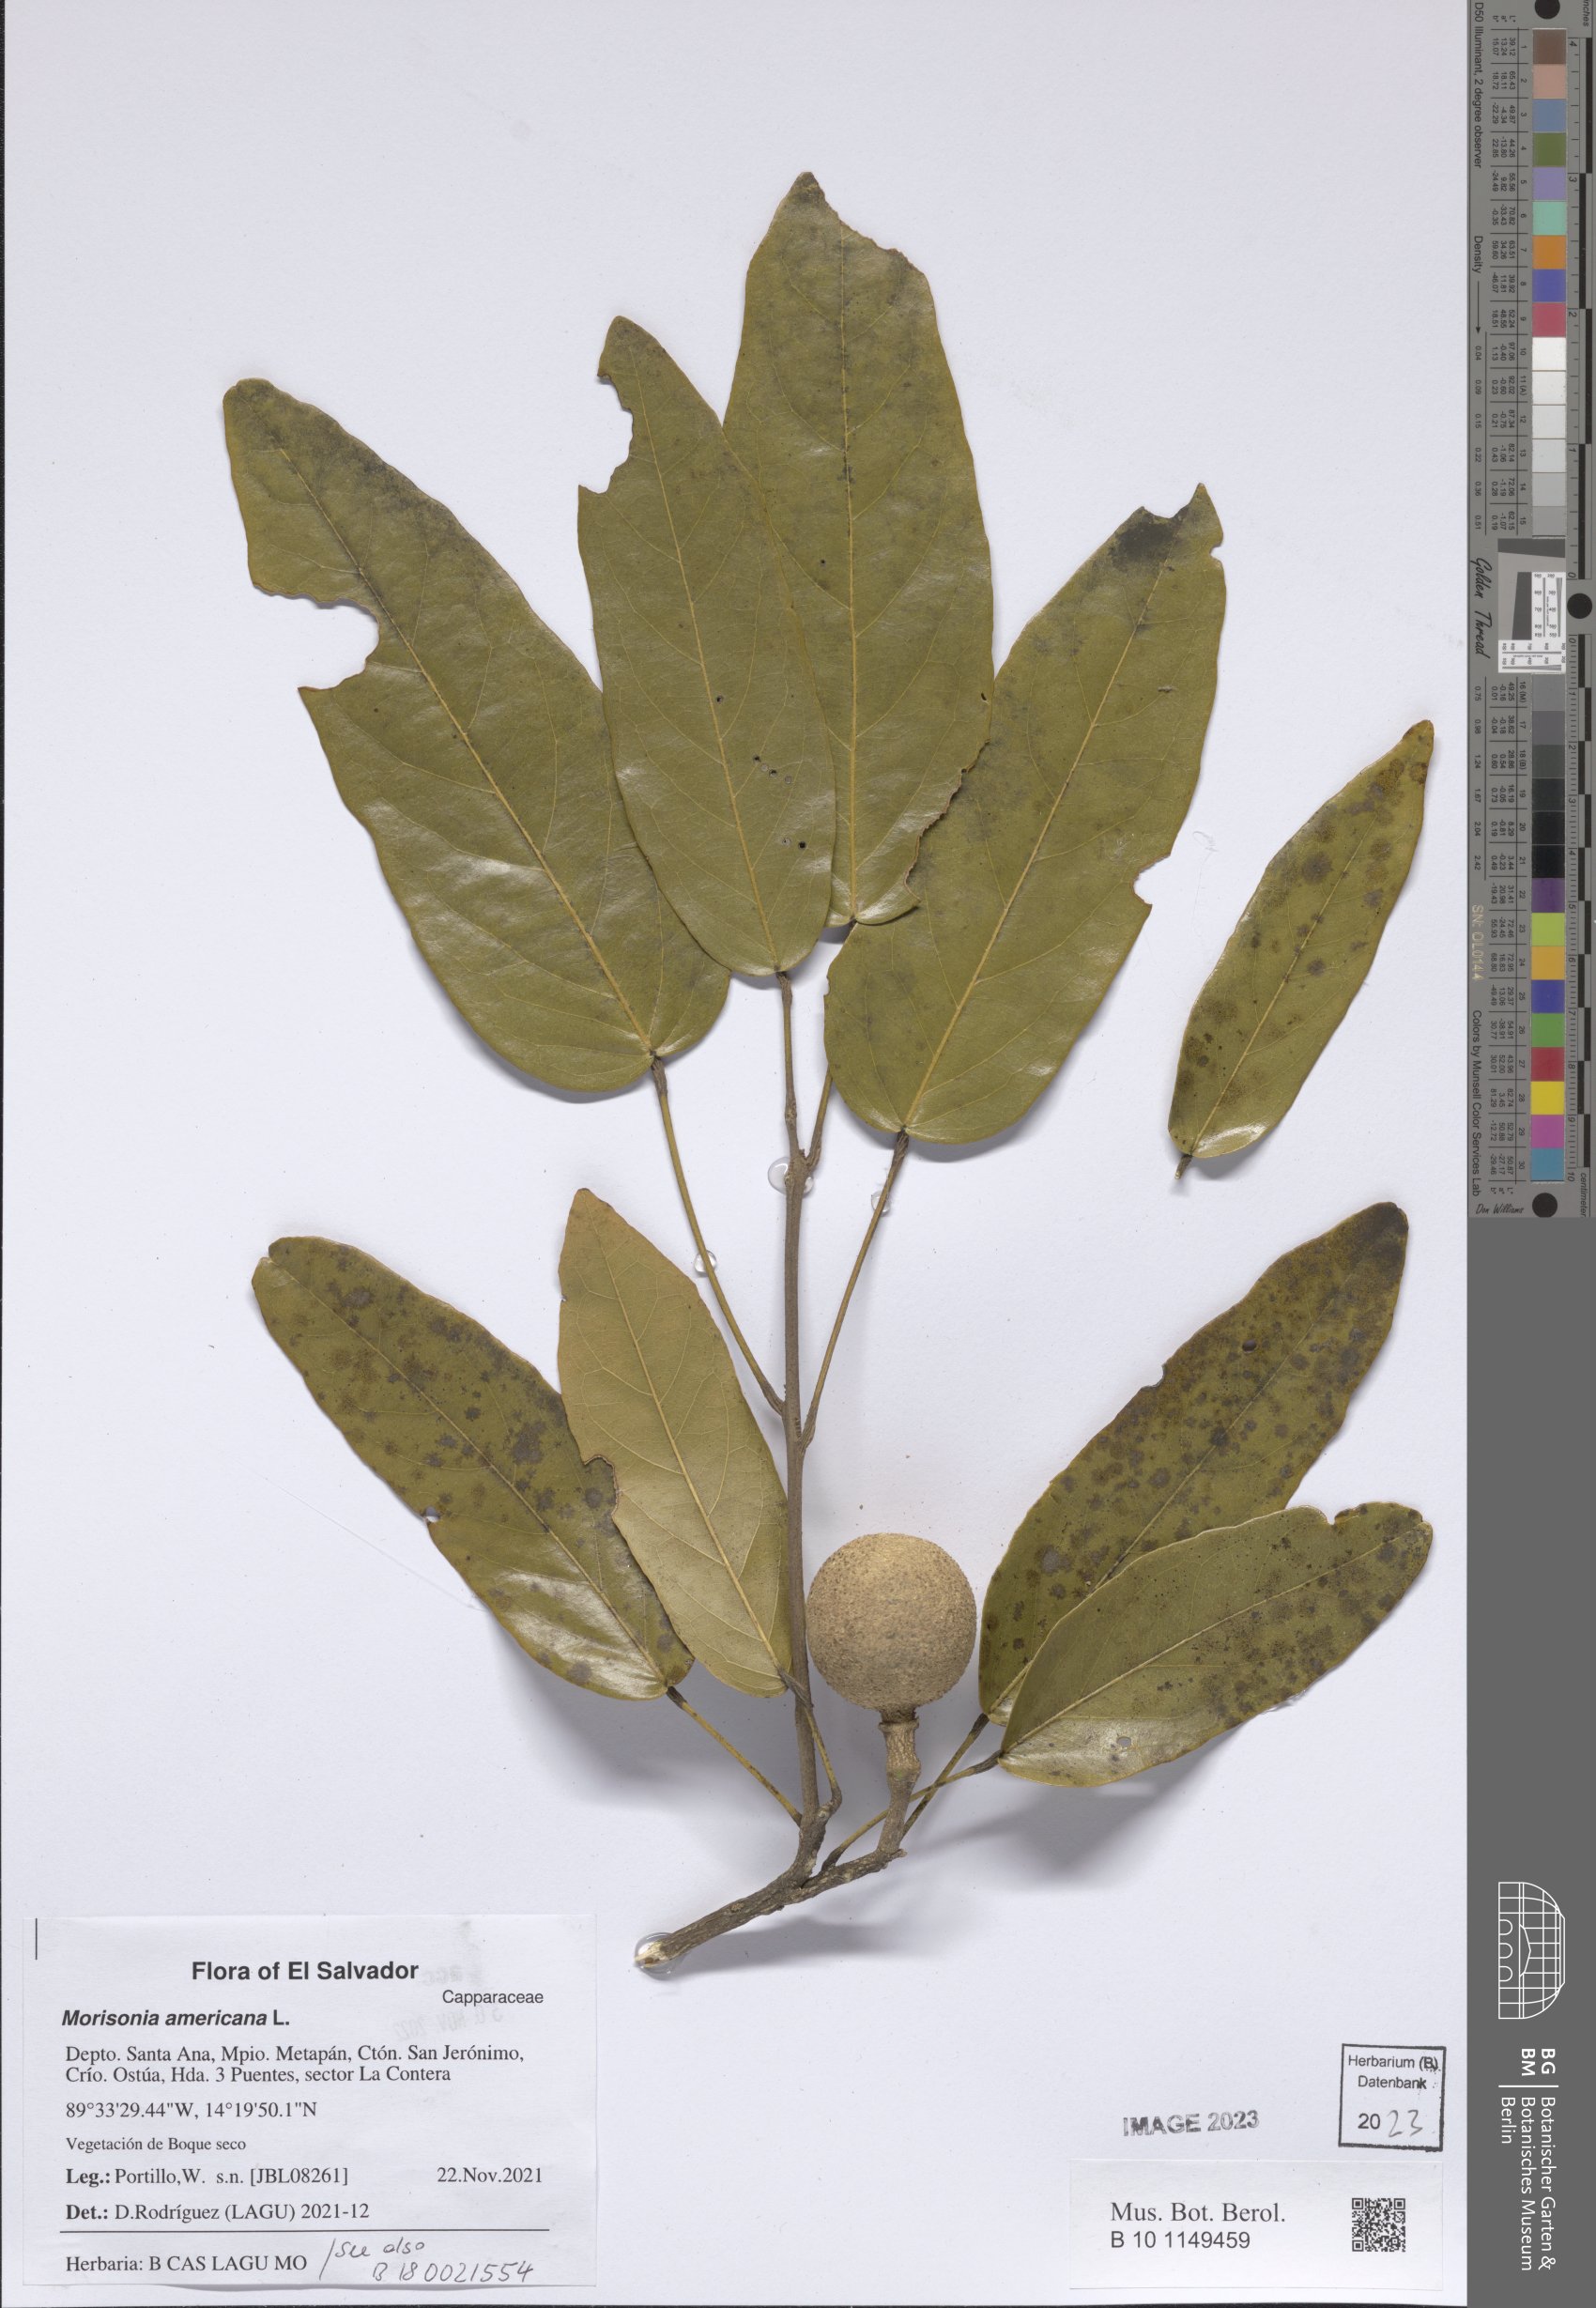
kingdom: Plantae
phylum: Tracheophyta
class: Magnoliopsida
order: Brassicales
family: Capparaceae
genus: Morisonia
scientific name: Morisonia americana
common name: Wild mesple
